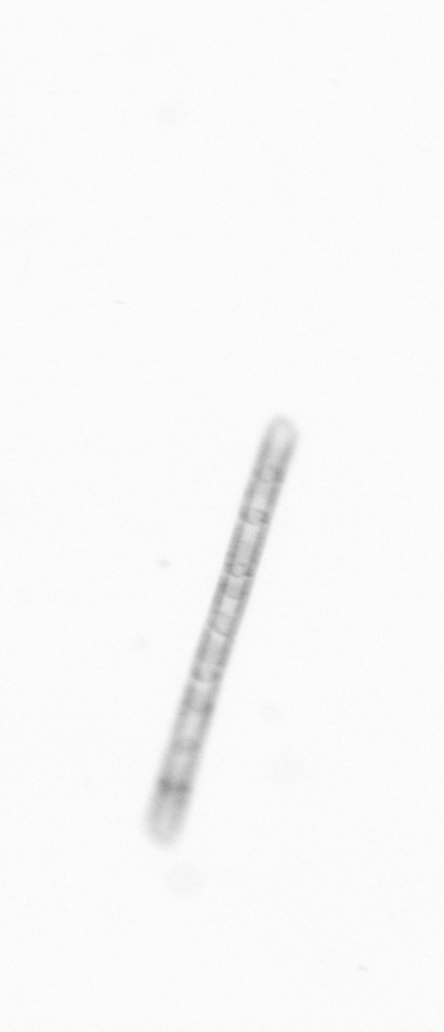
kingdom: Chromista
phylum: Ochrophyta
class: Bacillariophyceae
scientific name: Bacillariophyceae
